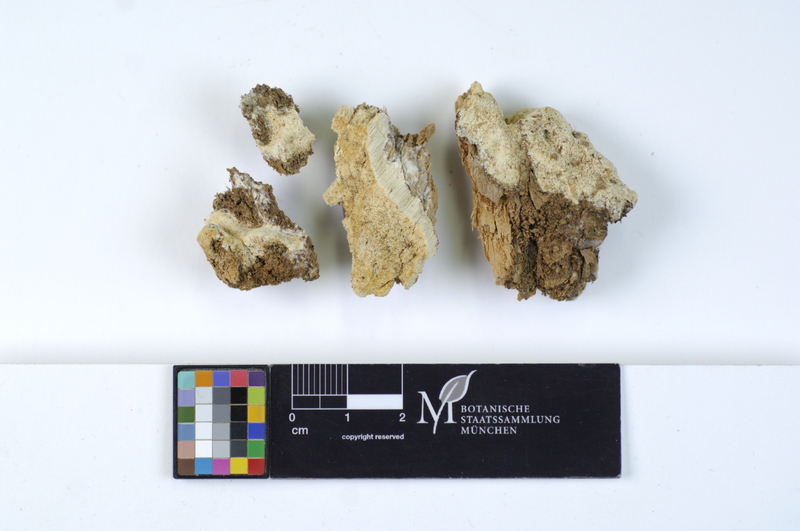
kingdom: Fungi
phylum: Basidiomycota
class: Agaricomycetes
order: Hymenochaetales
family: Rickenellaceae
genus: Sidera
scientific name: Sidera lenis
